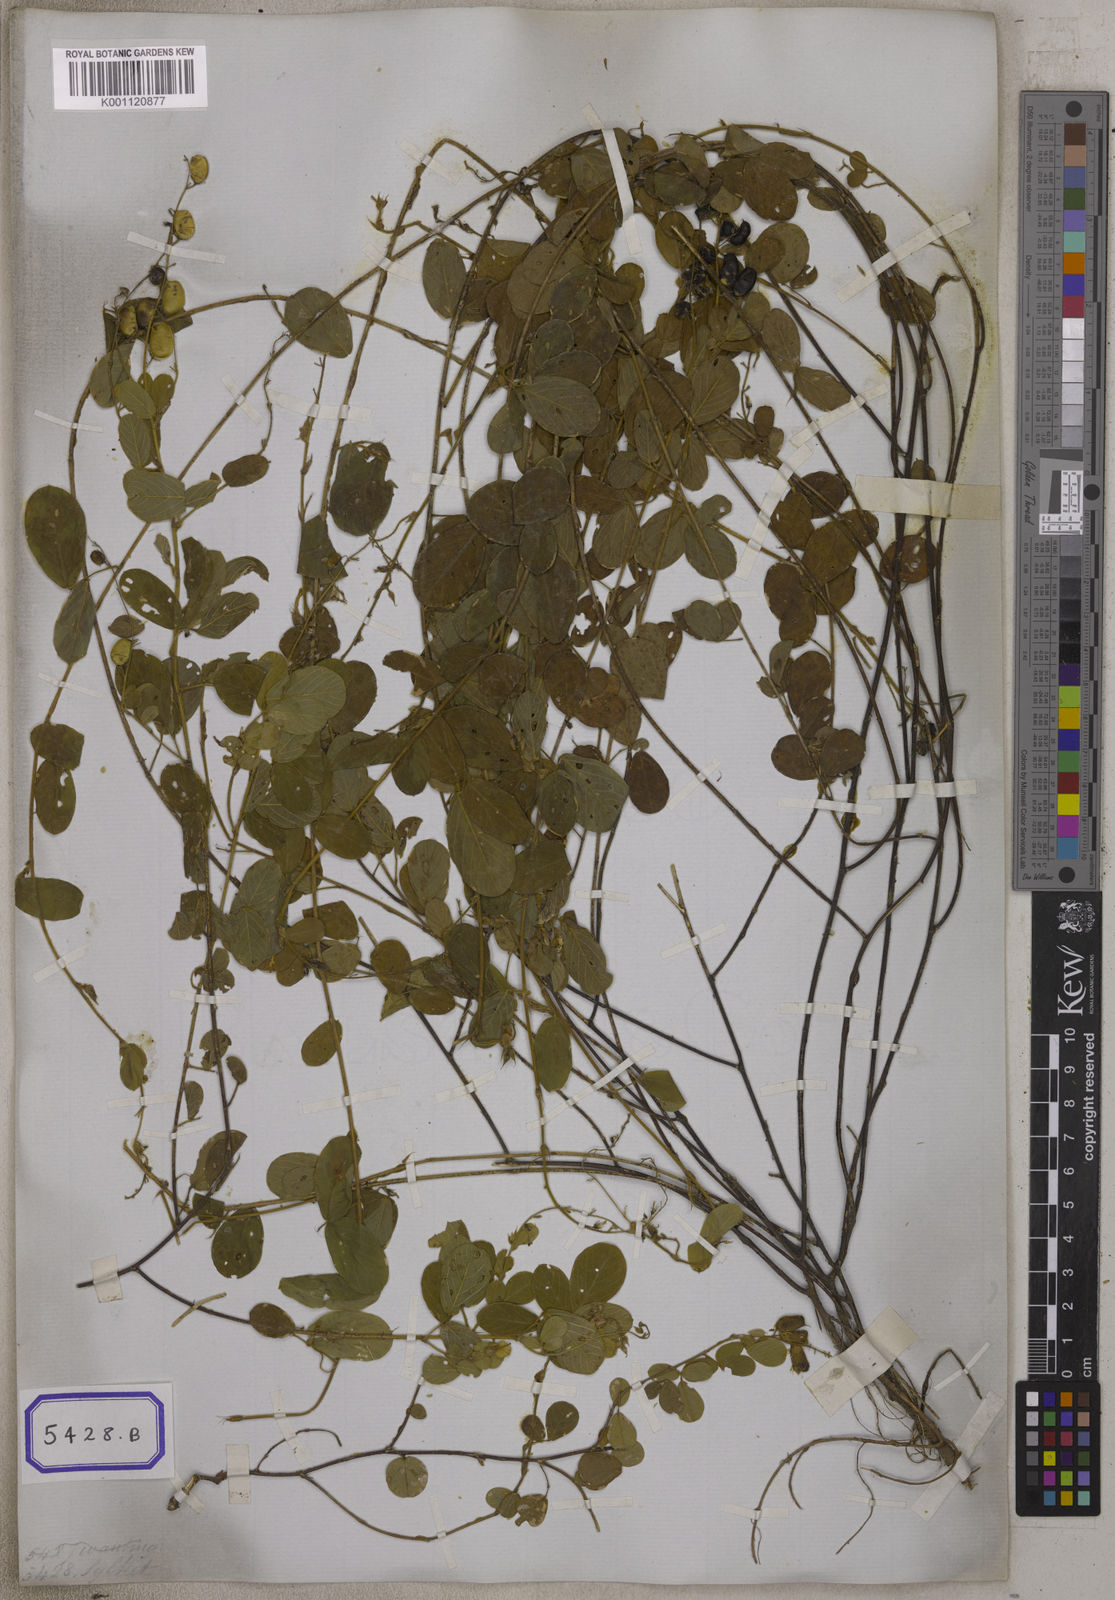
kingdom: Plantae
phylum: Tracheophyta
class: Magnoliopsida
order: Fabales
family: Fabaceae
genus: Pycnospora
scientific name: Pycnospora lutescens
